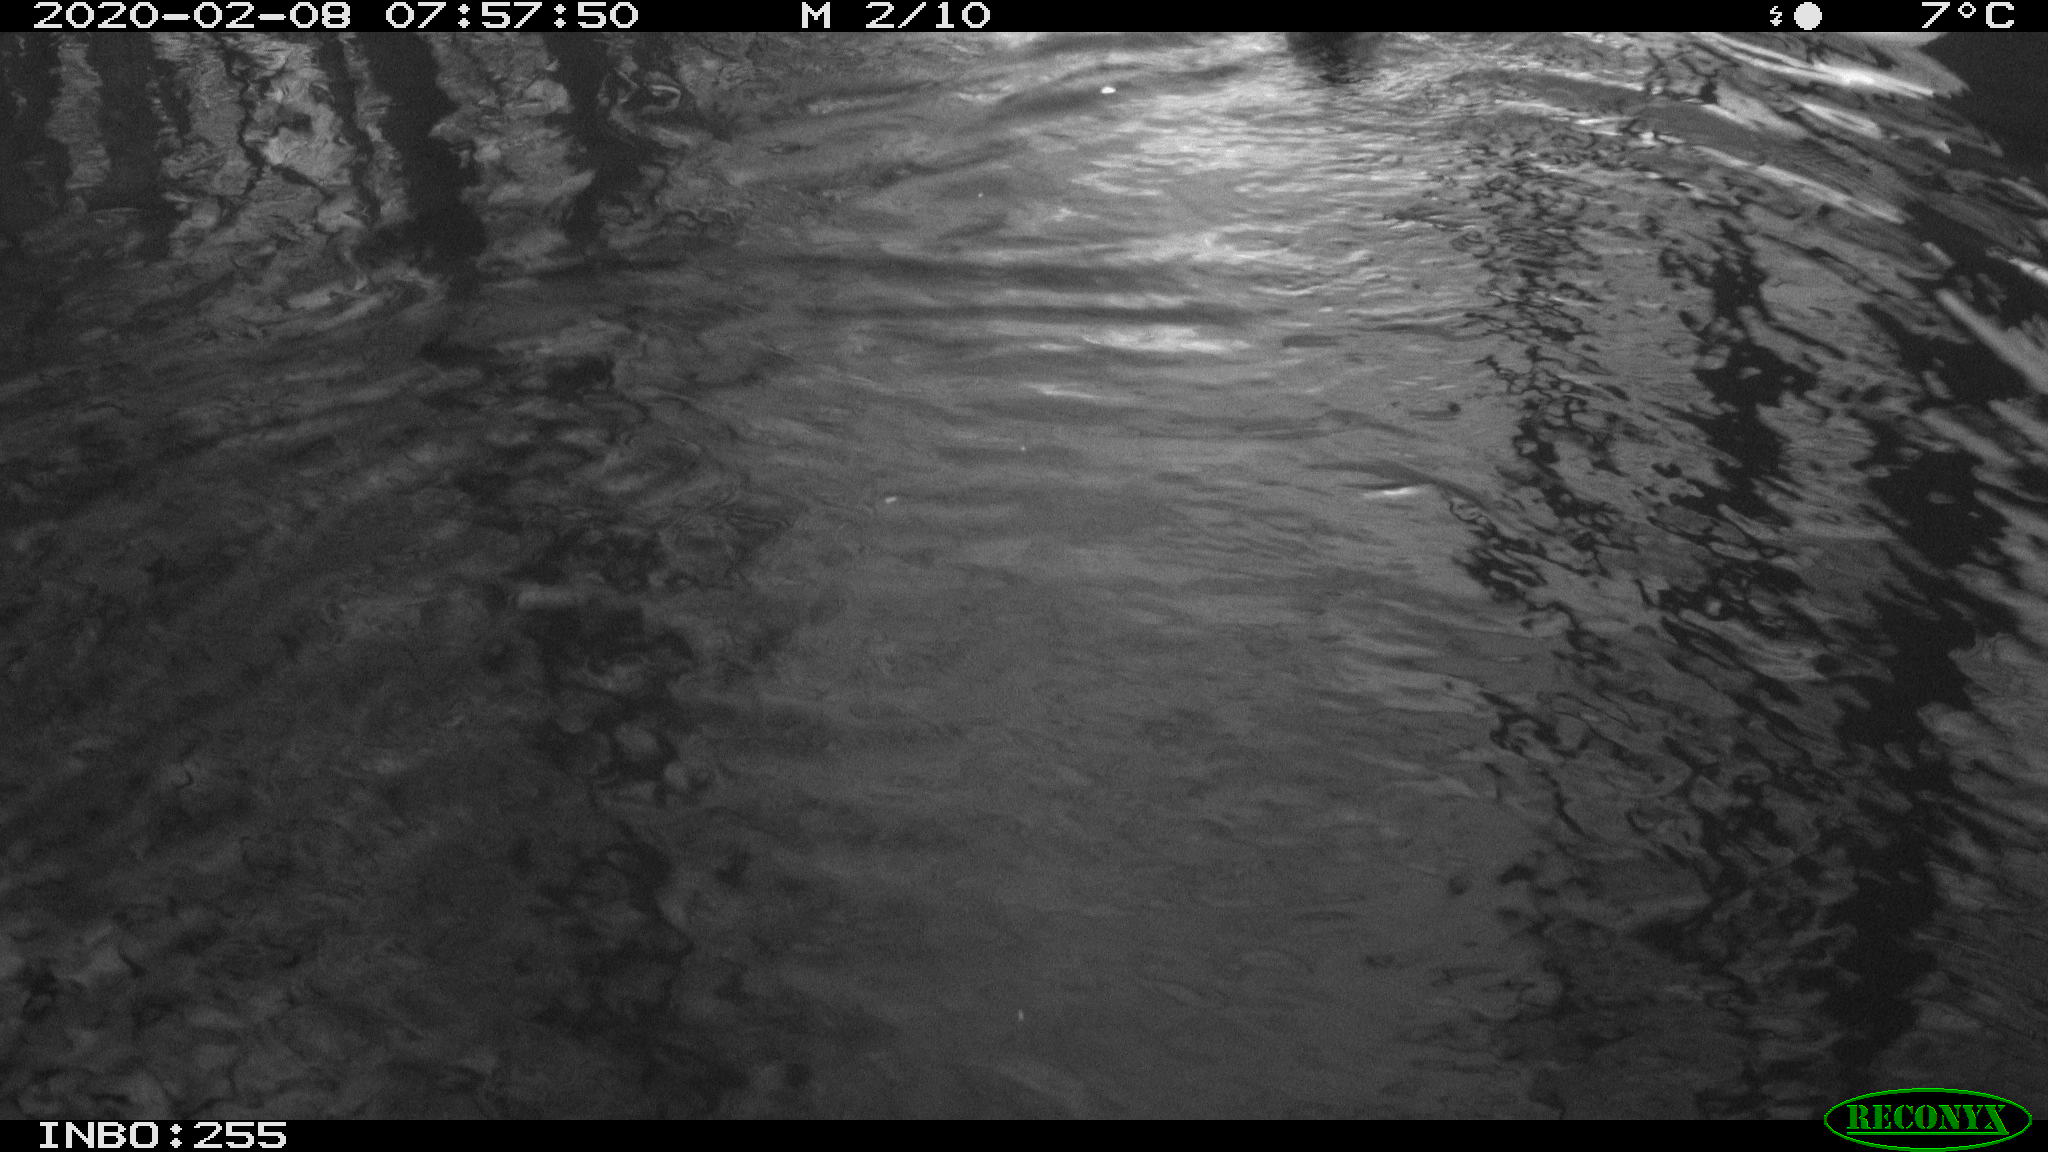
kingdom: Animalia
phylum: Chordata
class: Aves
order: Anseriformes
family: Anatidae
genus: Anas
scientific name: Anas platyrhynchos
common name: Mallard
